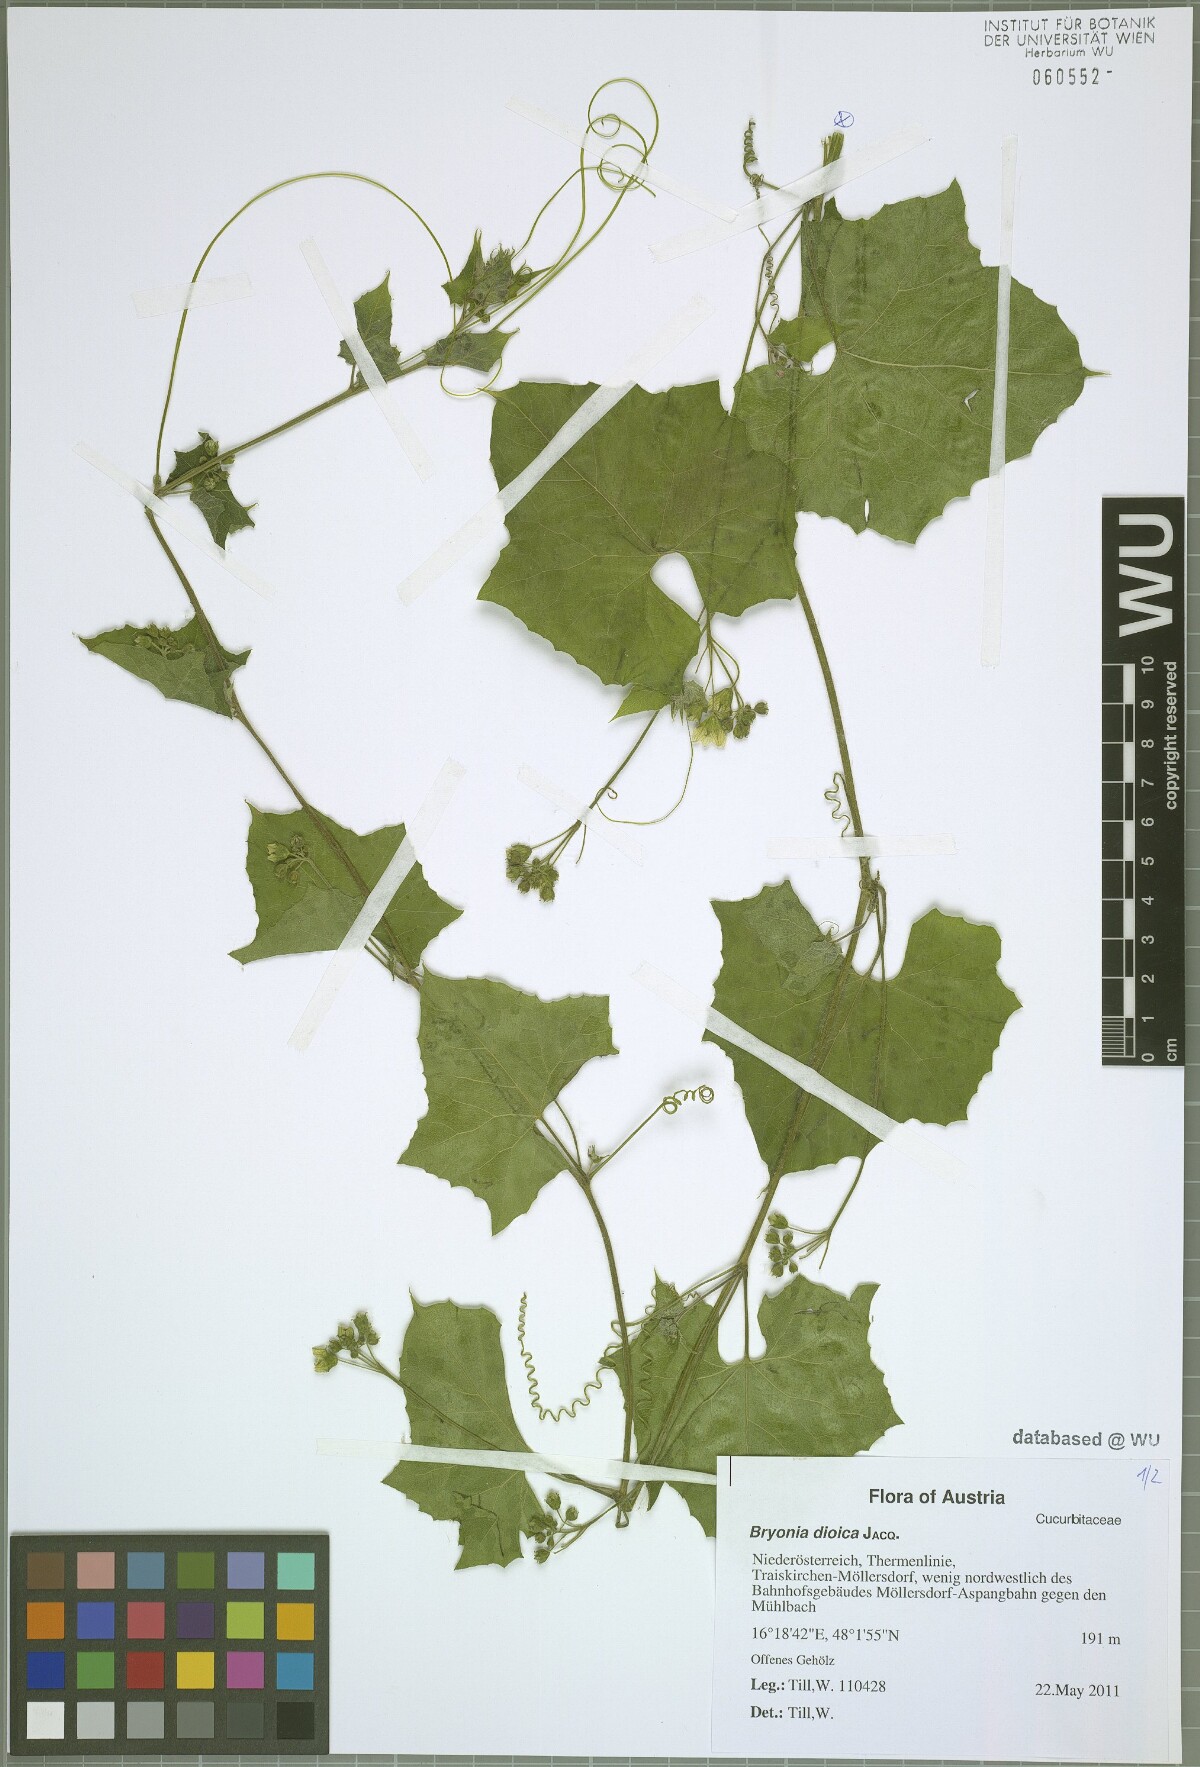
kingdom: Plantae
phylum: Tracheophyta
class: Magnoliopsida
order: Cucurbitales
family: Cucurbitaceae
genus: Bryonia
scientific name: Bryonia dioica
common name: White bryony
